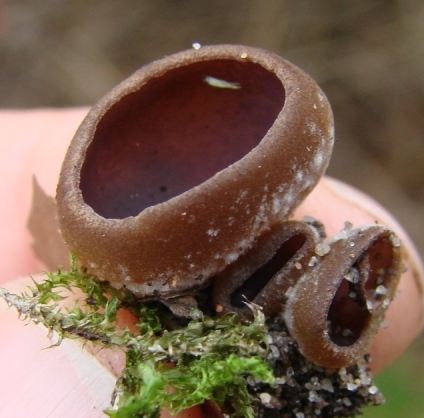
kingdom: Fungi
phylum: Ascomycota
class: Pezizomycetes
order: Pezizales
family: Pezizaceae
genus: Paragalactinia
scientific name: Paragalactinia michelii
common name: gulkødet bægersvamp
